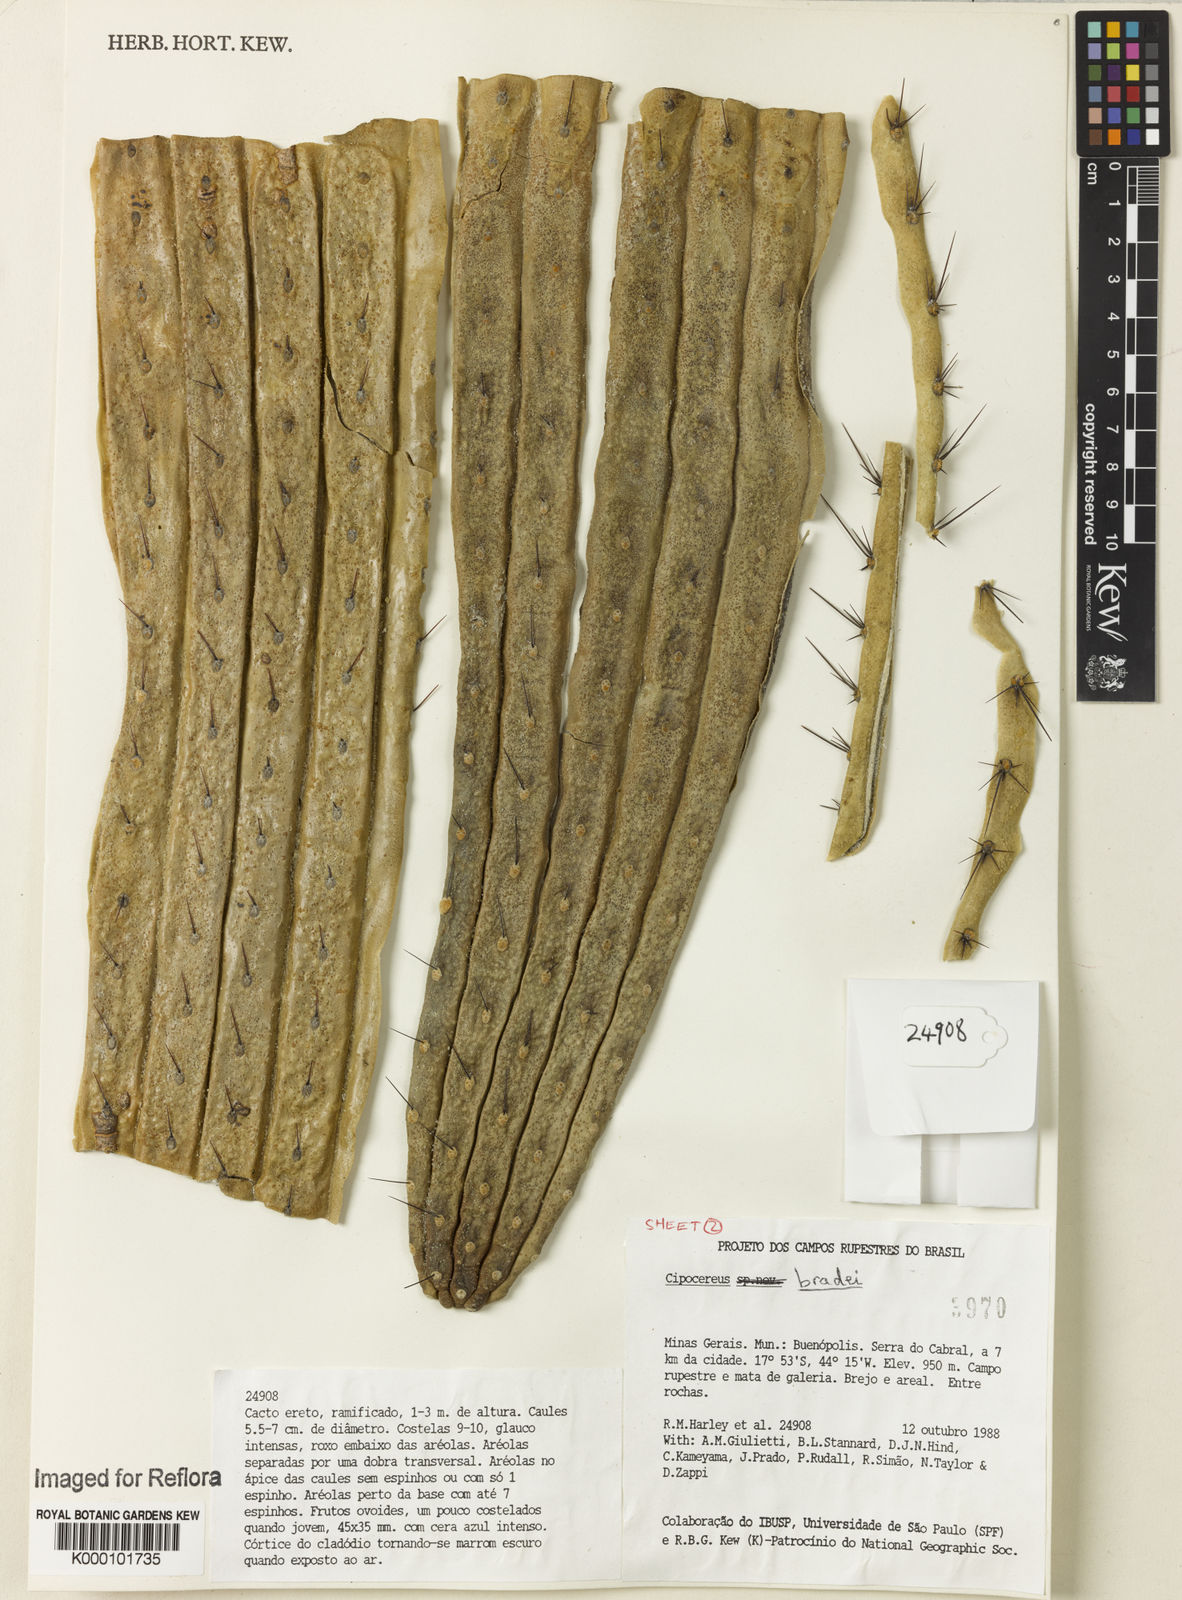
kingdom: Plantae
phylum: Tracheophyta
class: Magnoliopsida
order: Caryophyllales
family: Cactaceae
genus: Cipocereus
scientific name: Cipocereus bradei
